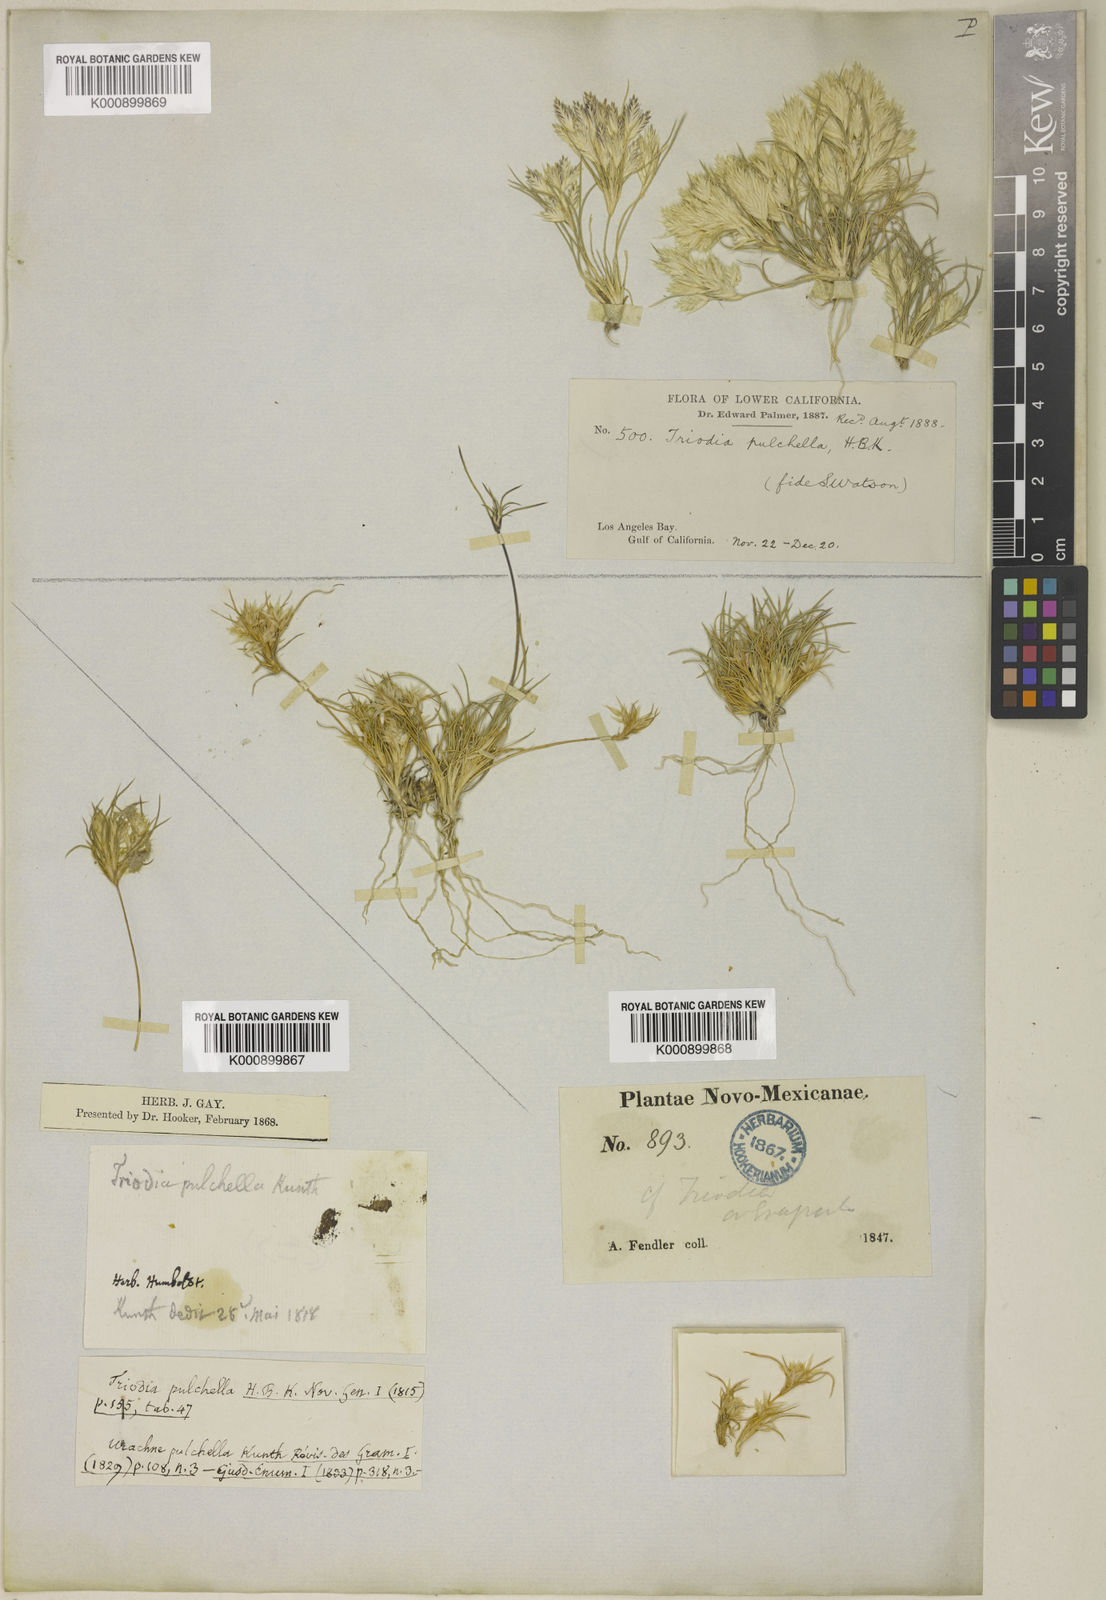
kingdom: Plantae
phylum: Tracheophyta
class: Liliopsida
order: Poales
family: Poaceae
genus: Munroa
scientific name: Munroa pulchella
